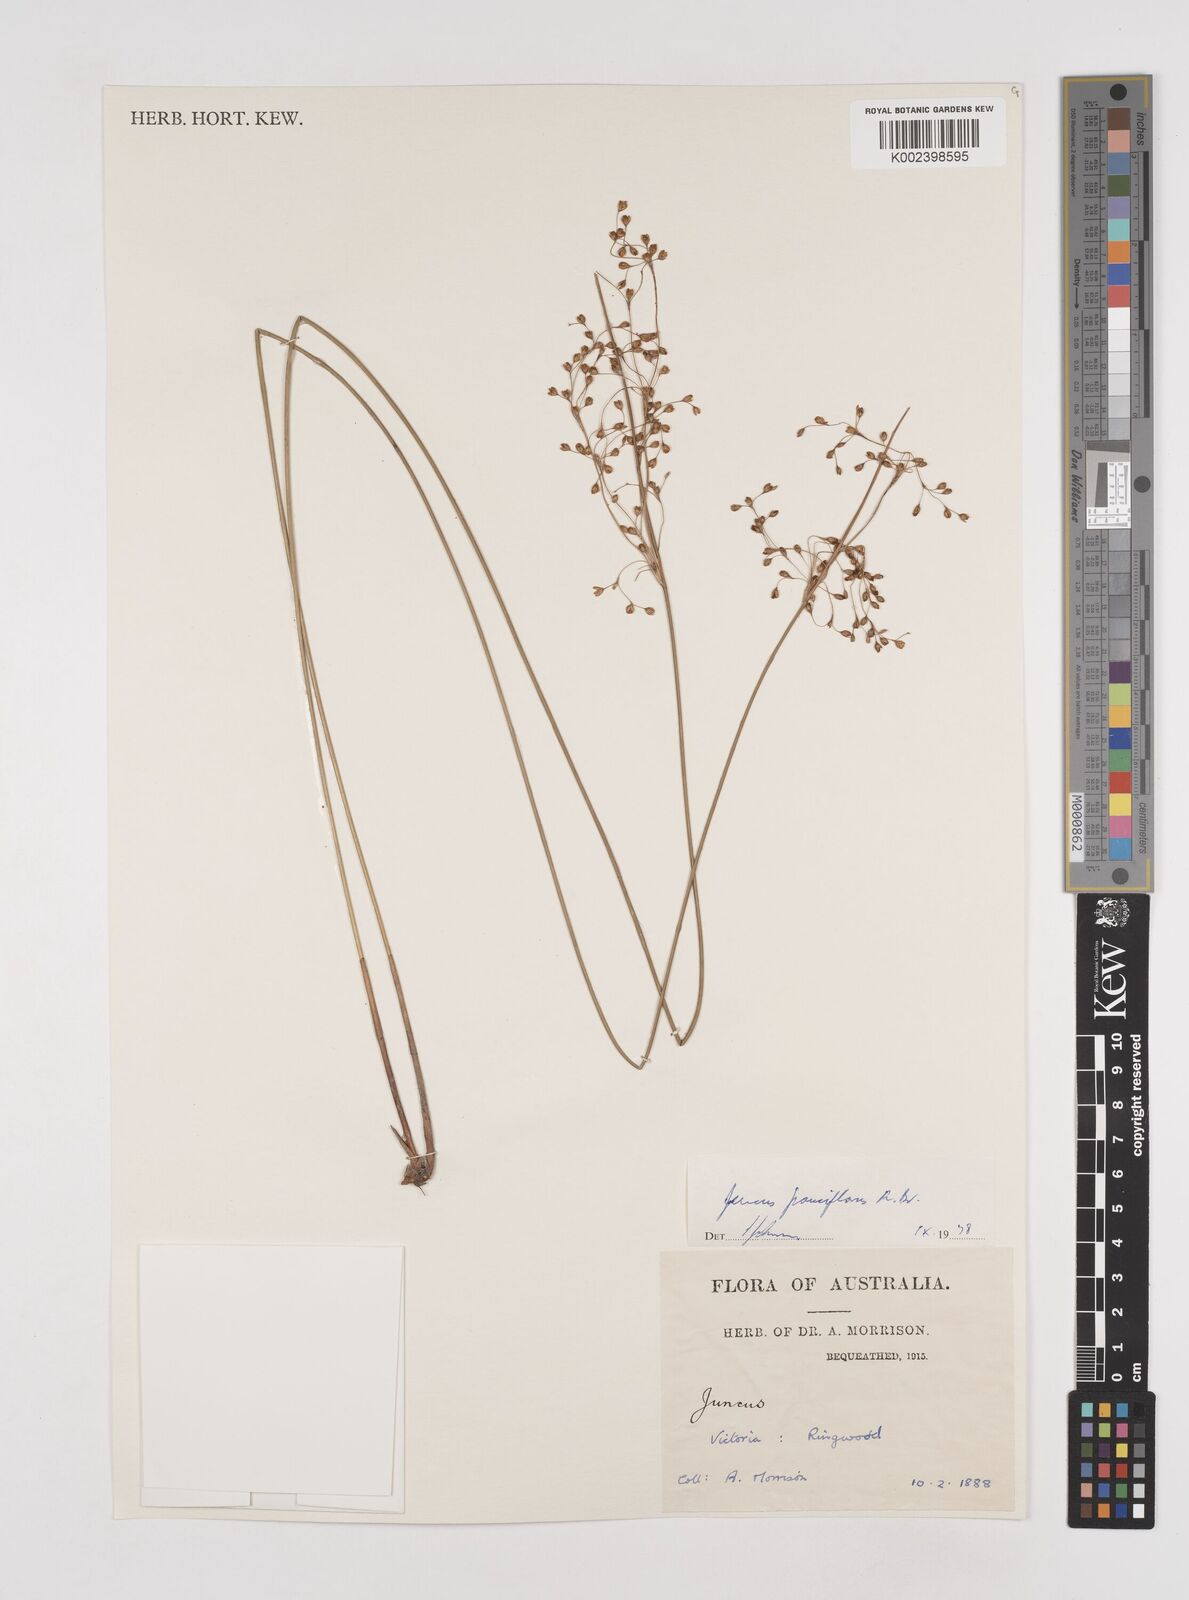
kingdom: Plantae
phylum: Tracheophyta
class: Liliopsida
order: Poales
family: Juncaceae
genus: Juncus
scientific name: Juncus pauciflorus
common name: Loose-flowered rush
